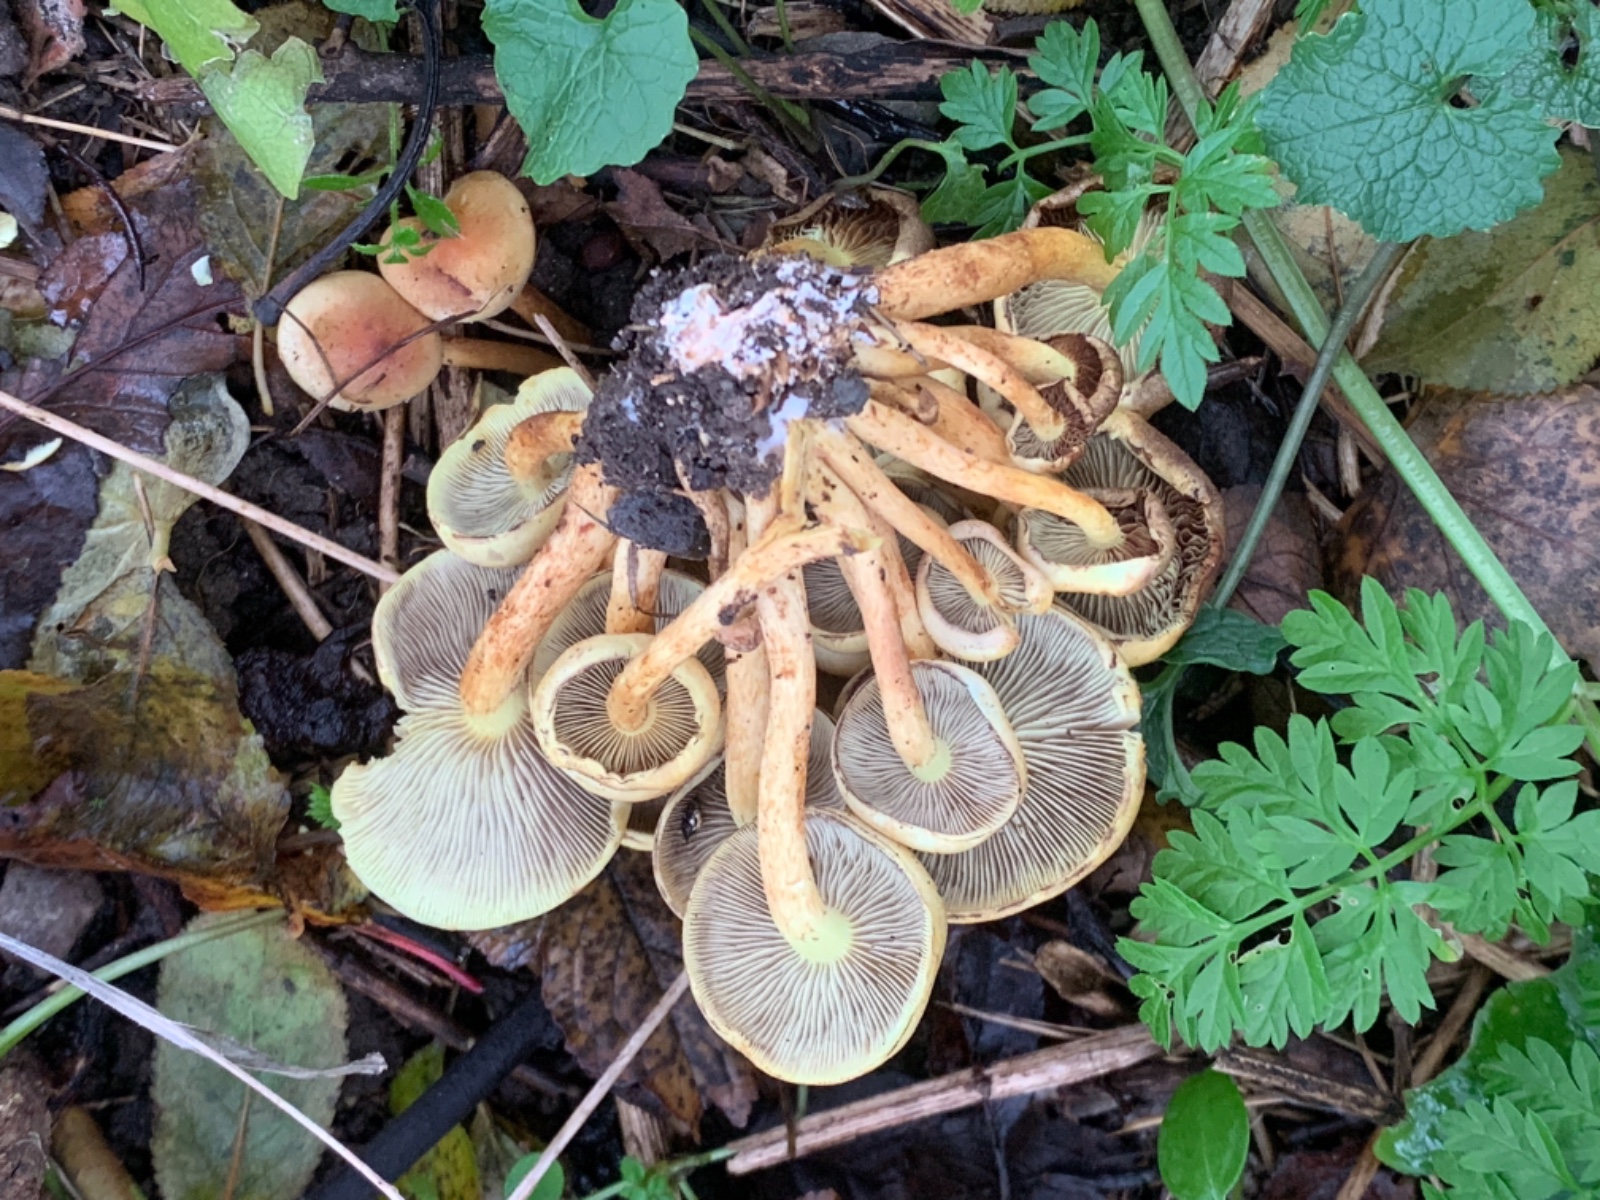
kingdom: Fungi
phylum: Basidiomycota
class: Agaricomycetes
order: Agaricales
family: Strophariaceae
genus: Hypholoma
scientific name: Hypholoma fasciculare
